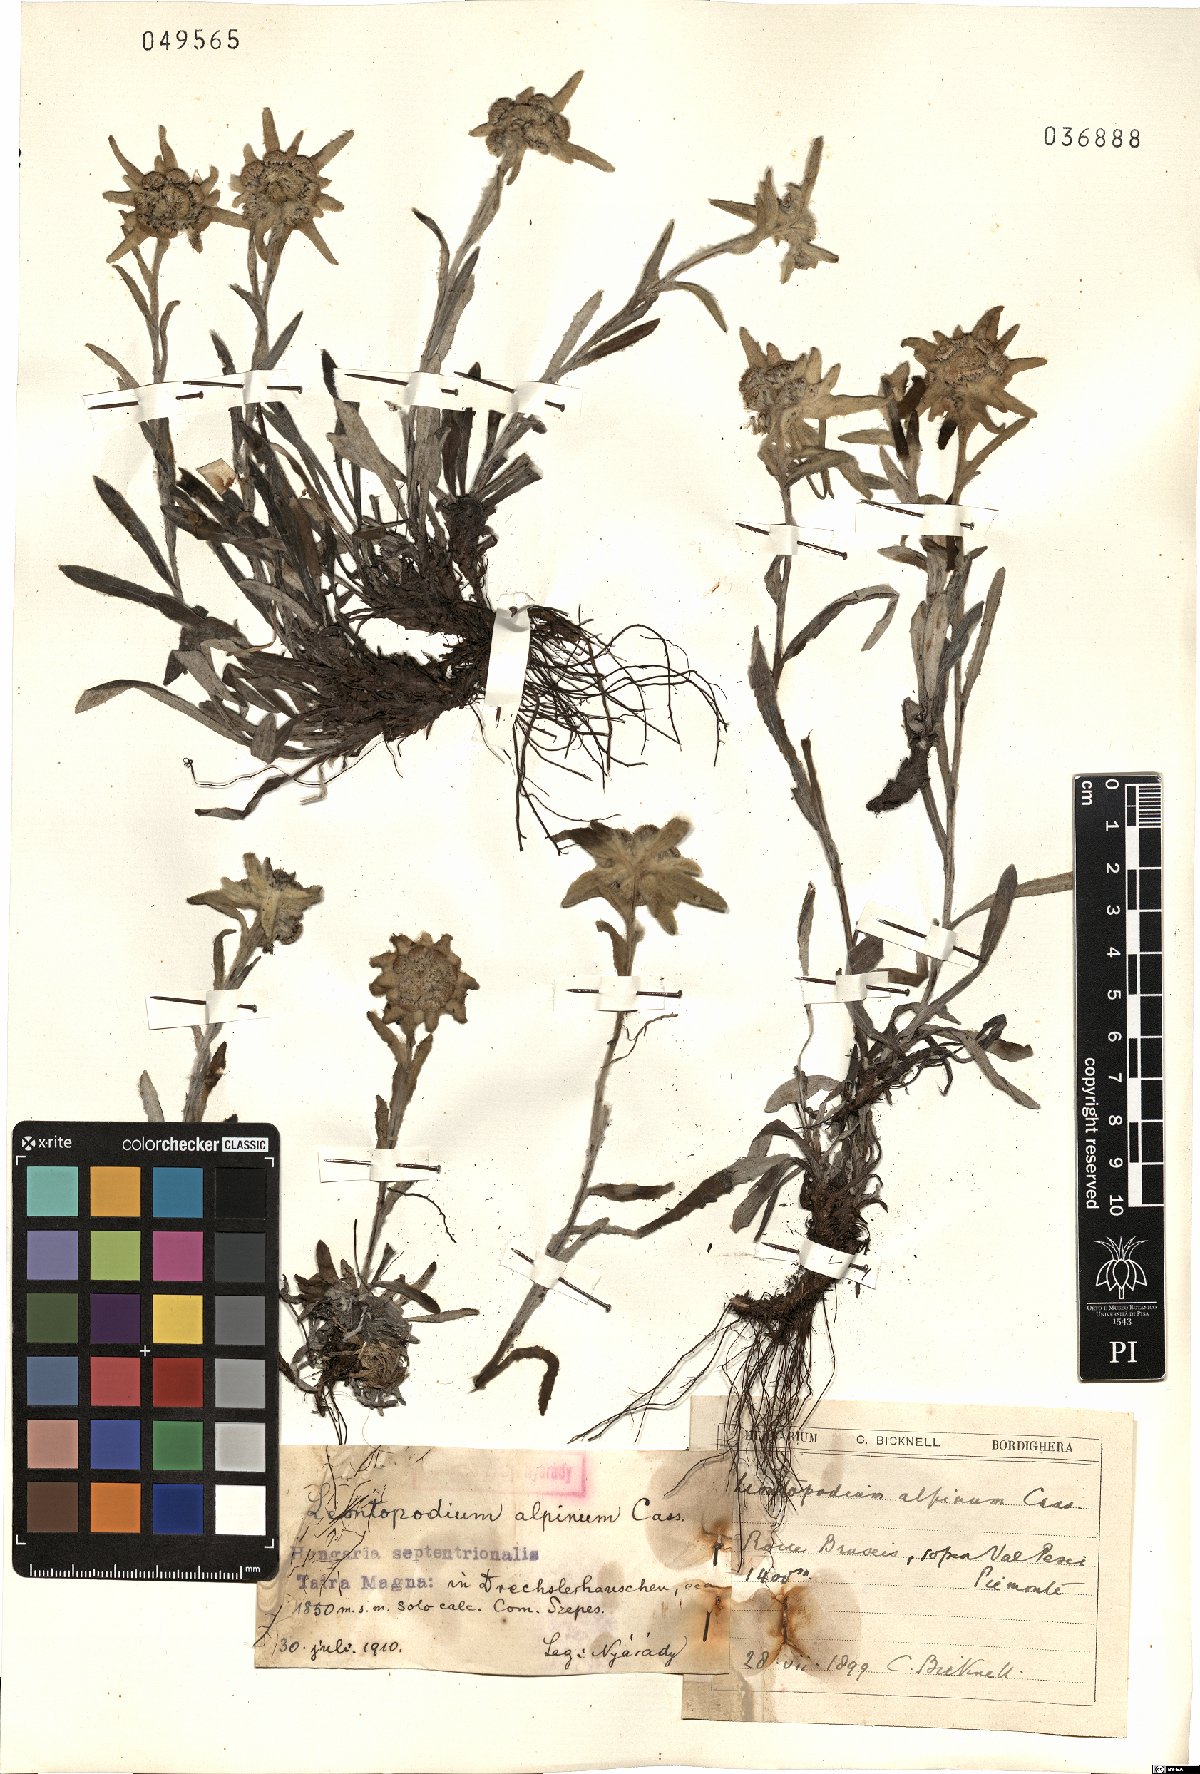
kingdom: Plantae
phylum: Tracheophyta
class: Magnoliopsida
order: Asterales
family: Asteraceae
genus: Leontopodium
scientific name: Leontopodium nivale
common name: Edelweiss
